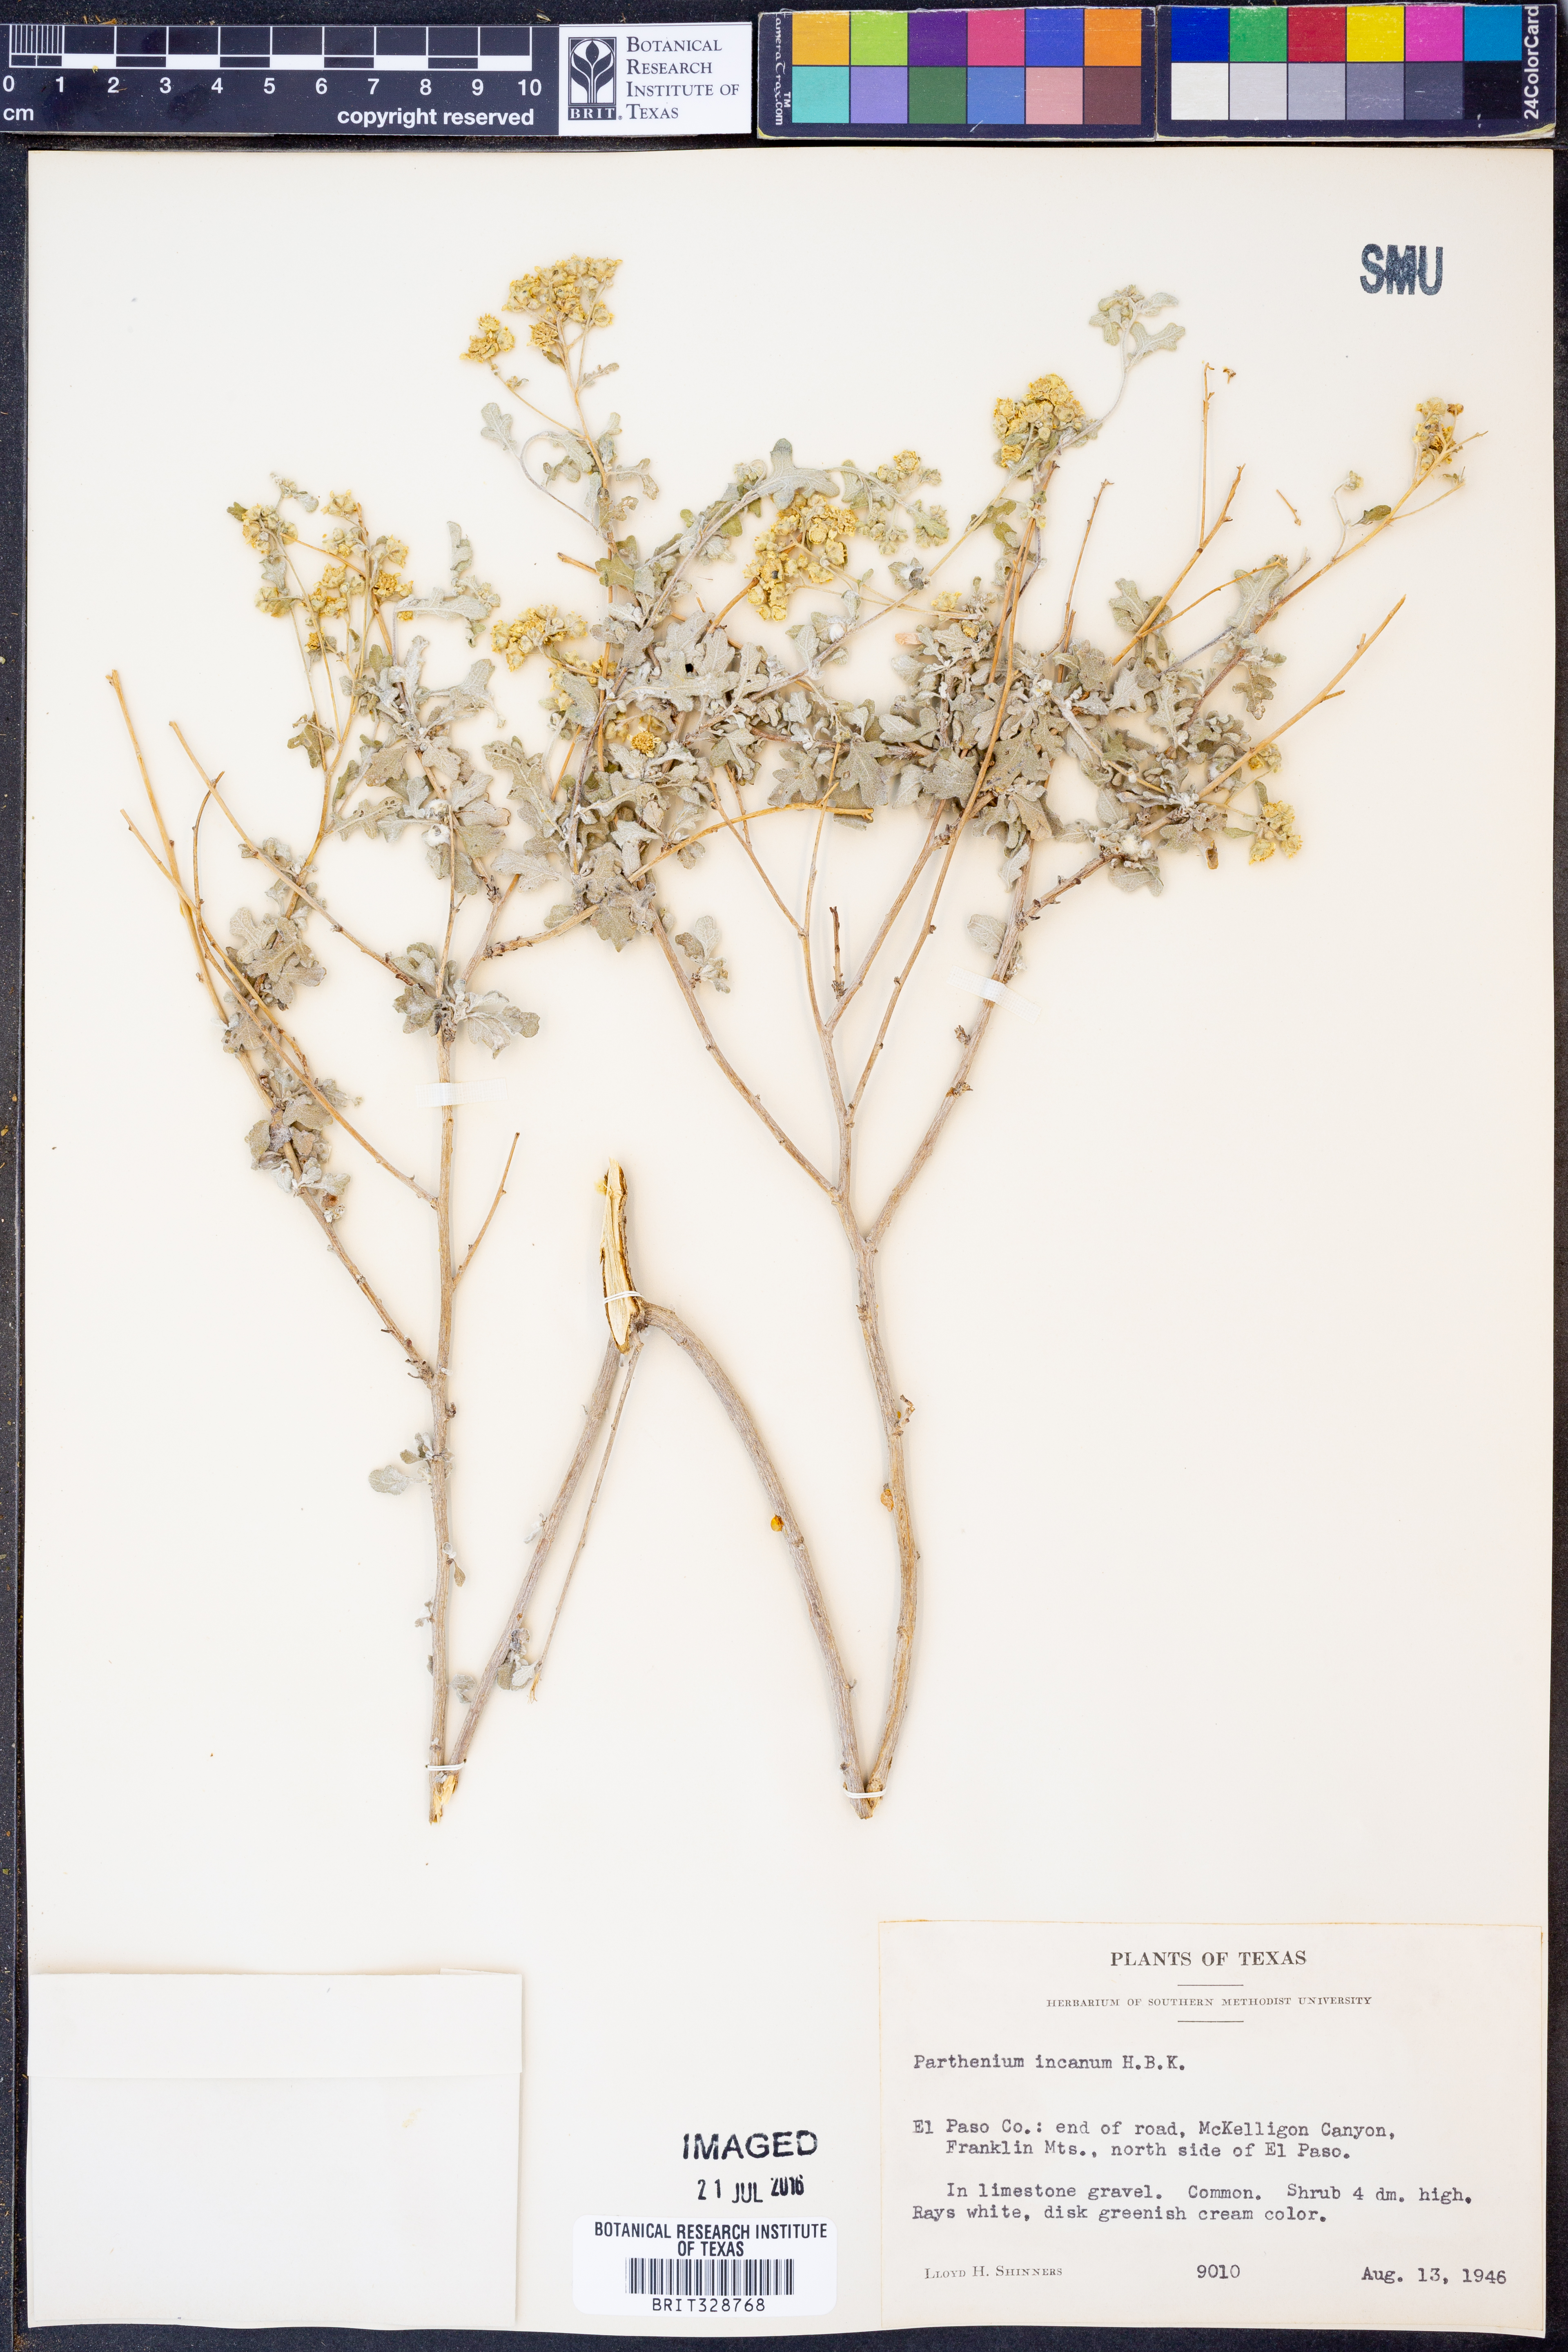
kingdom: Plantae
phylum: Tracheophyta
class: Magnoliopsida
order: Asterales
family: Asteraceae
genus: Parthenium
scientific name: Parthenium incanum
